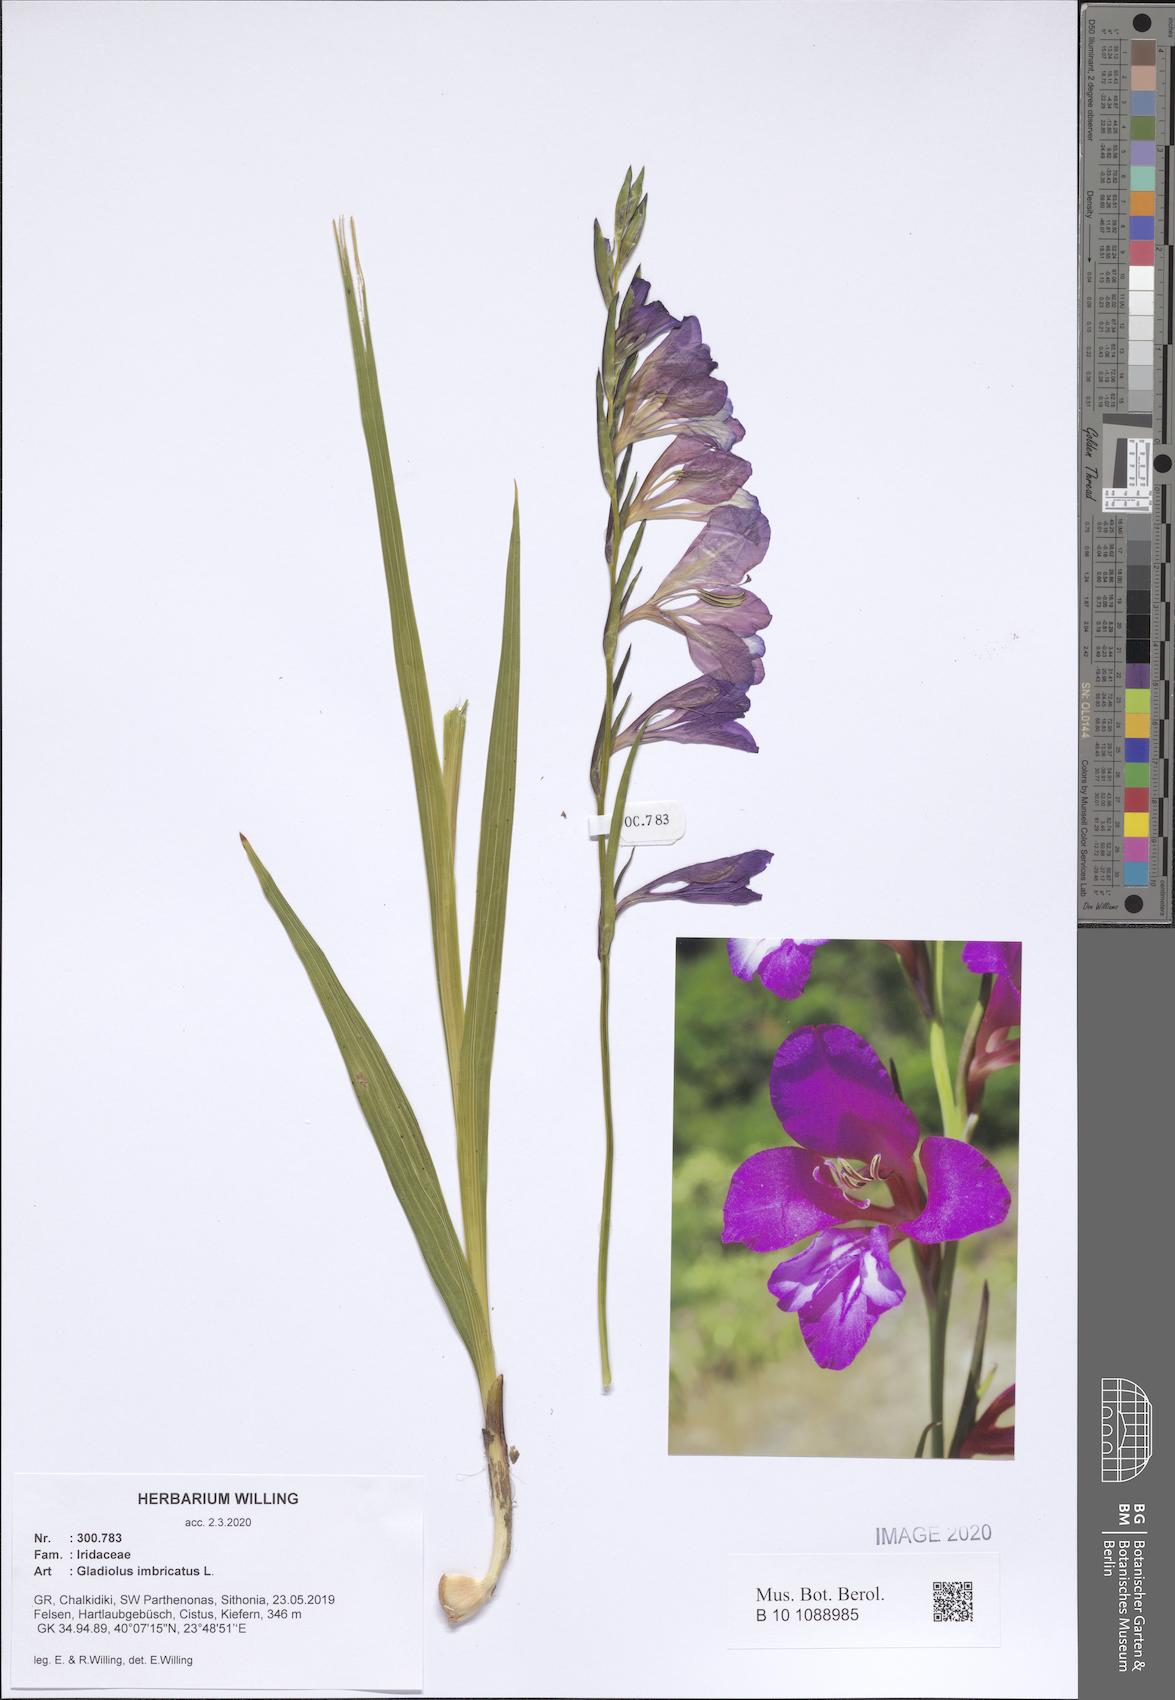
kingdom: Plantae
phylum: Tracheophyta
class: Liliopsida
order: Asparagales
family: Iridaceae
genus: Gladiolus
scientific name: Gladiolus imbricatus
